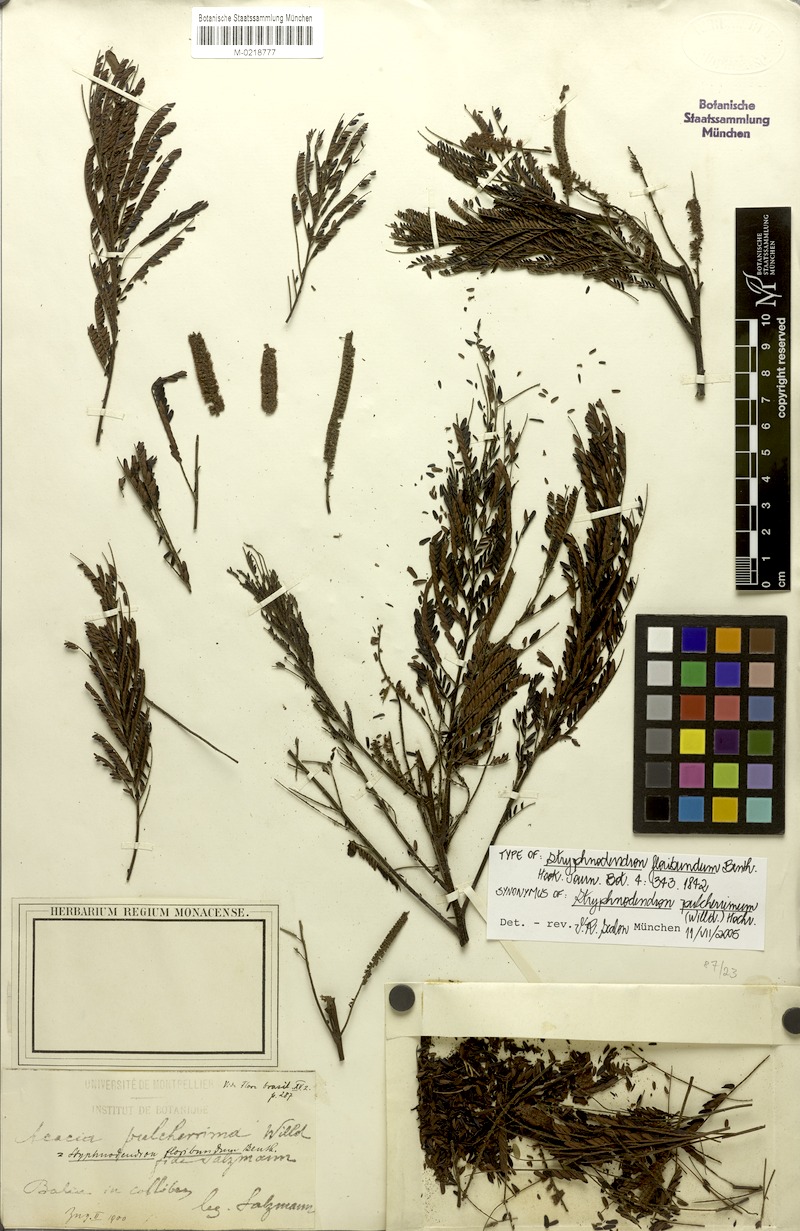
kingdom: Plantae
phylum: Tracheophyta
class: Magnoliopsida
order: Fabales
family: Fabaceae
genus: Stryphnodendron
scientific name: Stryphnodendron pulcherrimum
